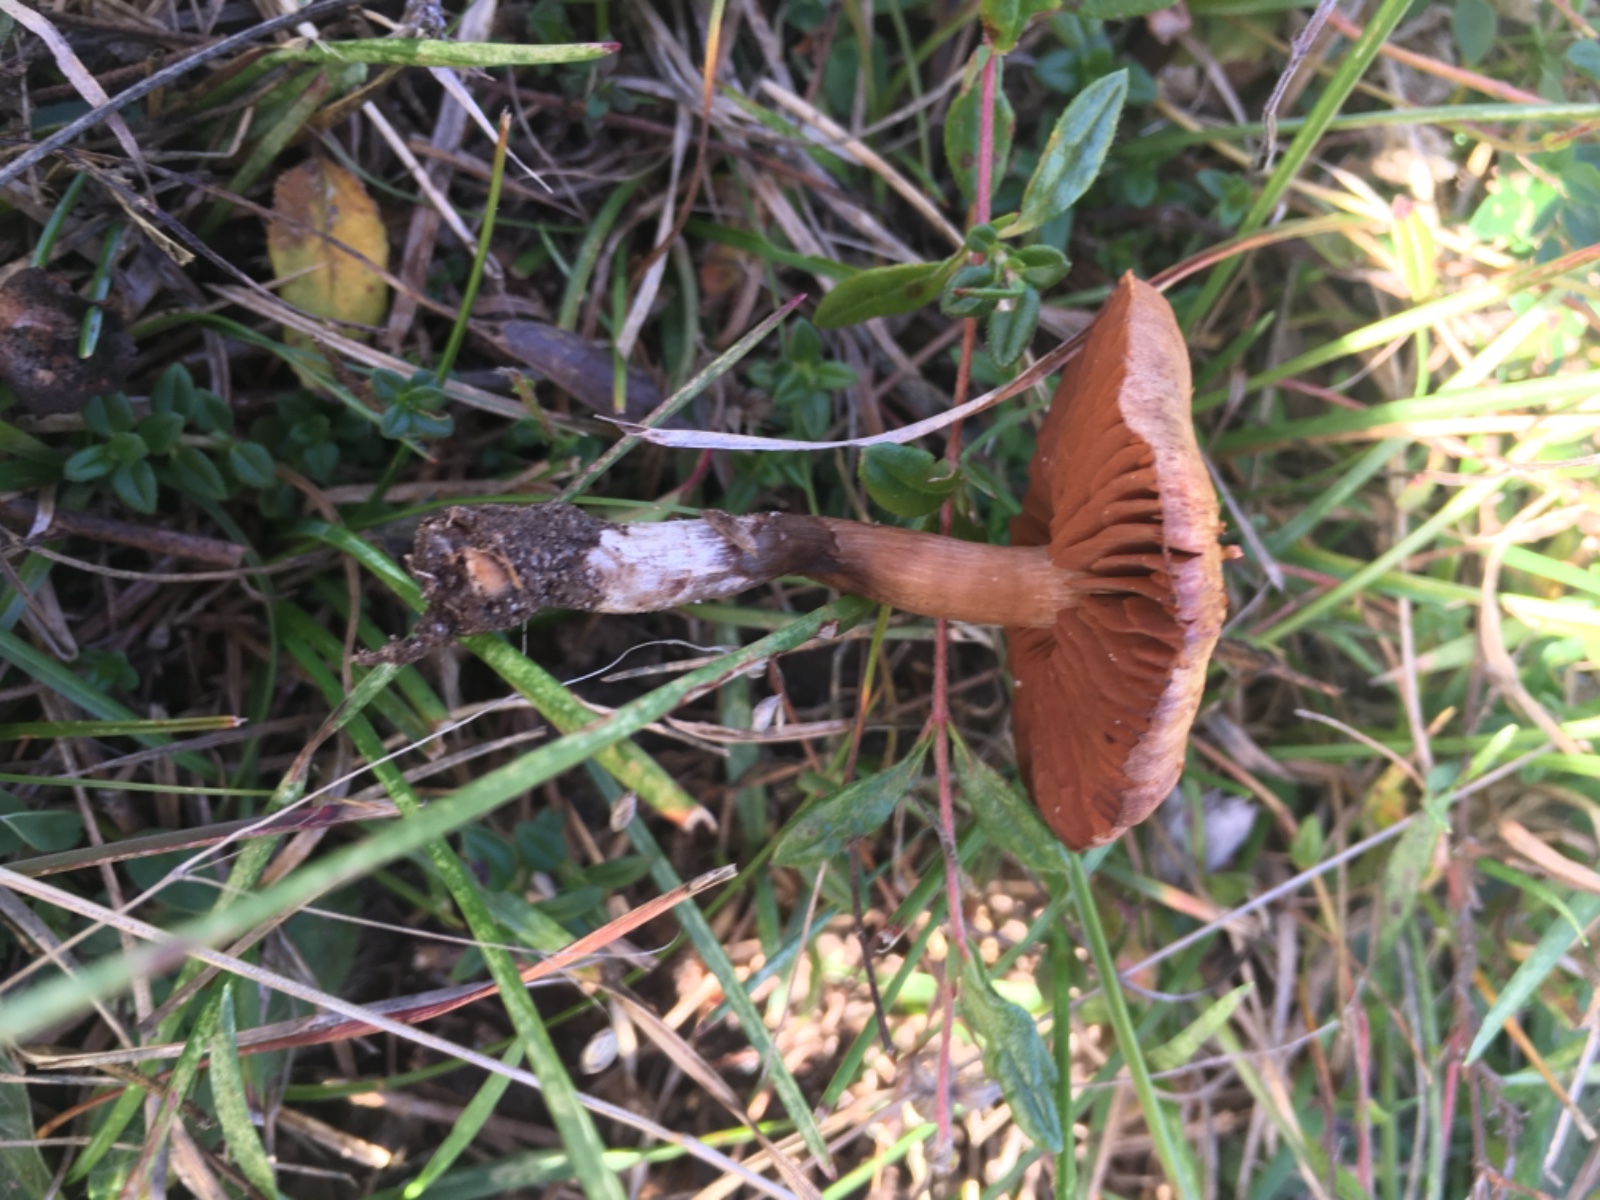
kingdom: Fungi
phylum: Basidiomycota
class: Agaricomycetes
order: Agaricales
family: Cortinariaceae
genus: Cortinarius
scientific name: Cortinarius confirmatus
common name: flammet slørhat
